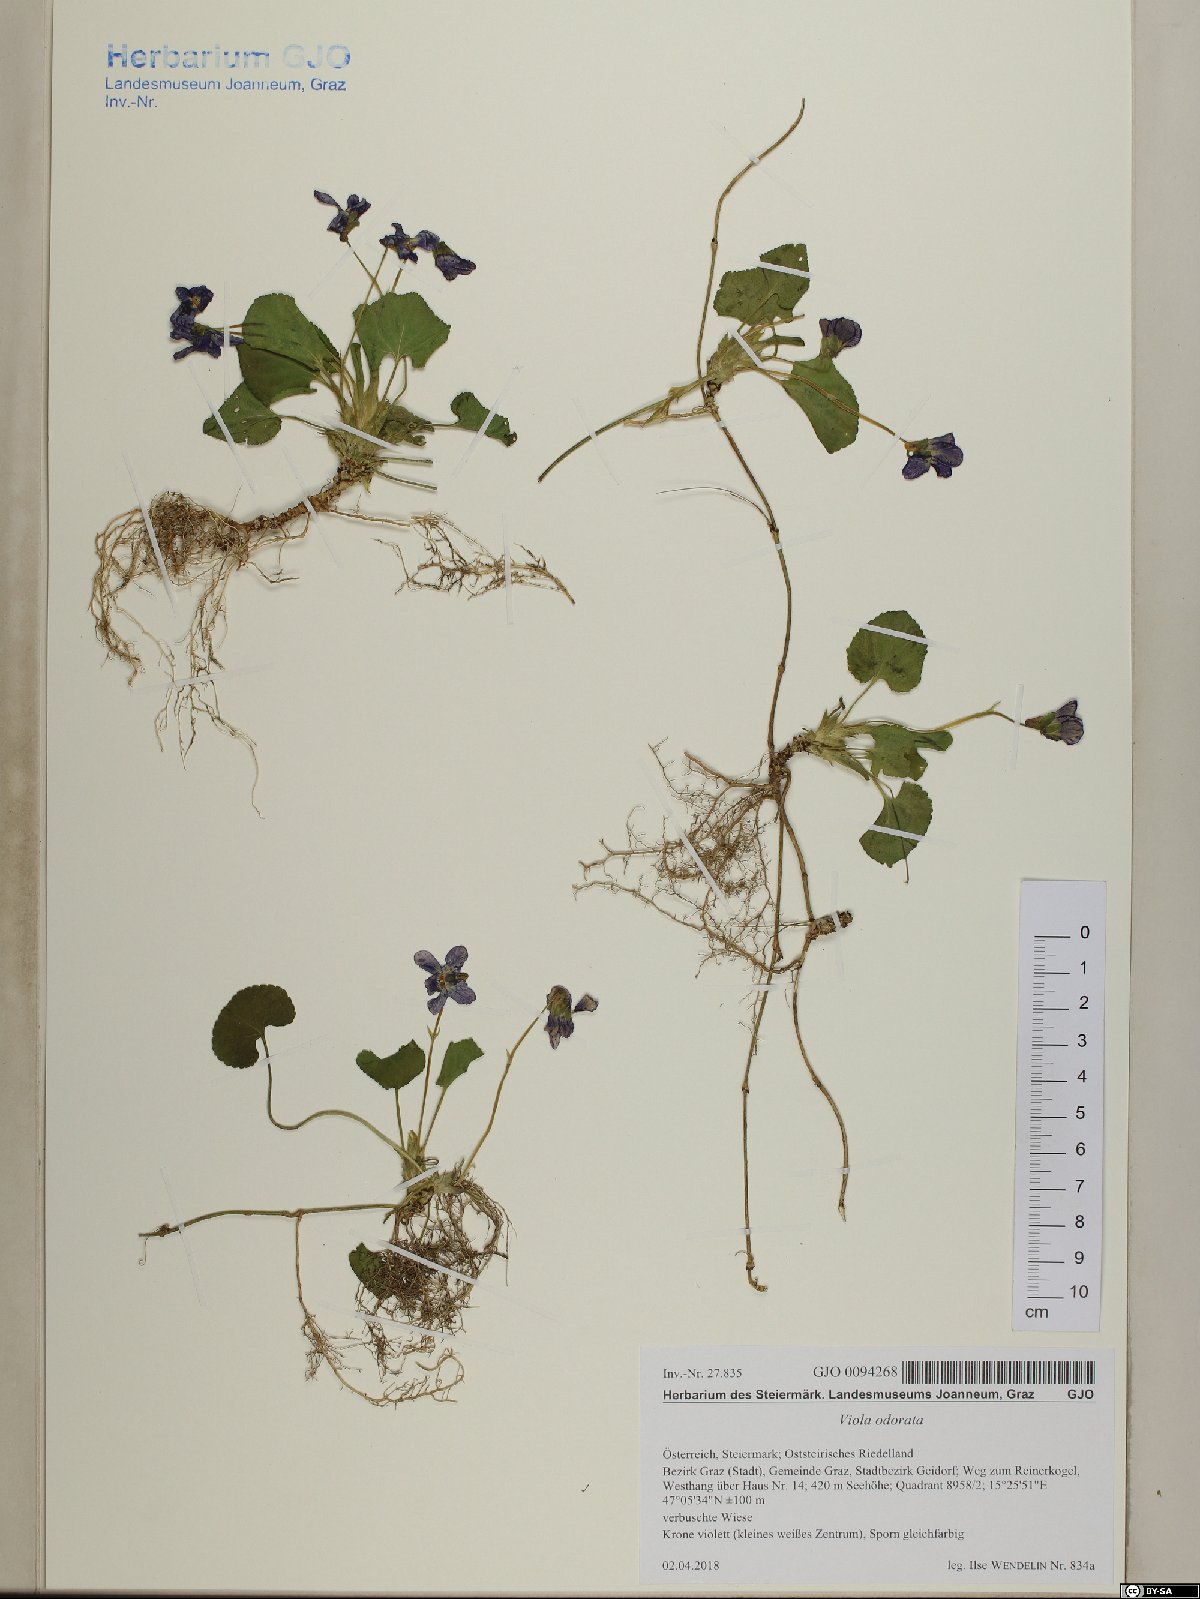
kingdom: Plantae
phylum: Tracheophyta
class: Magnoliopsida
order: Malpighiales
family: Violaceae
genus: Viola
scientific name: Viola odorata
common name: Sweet violet
